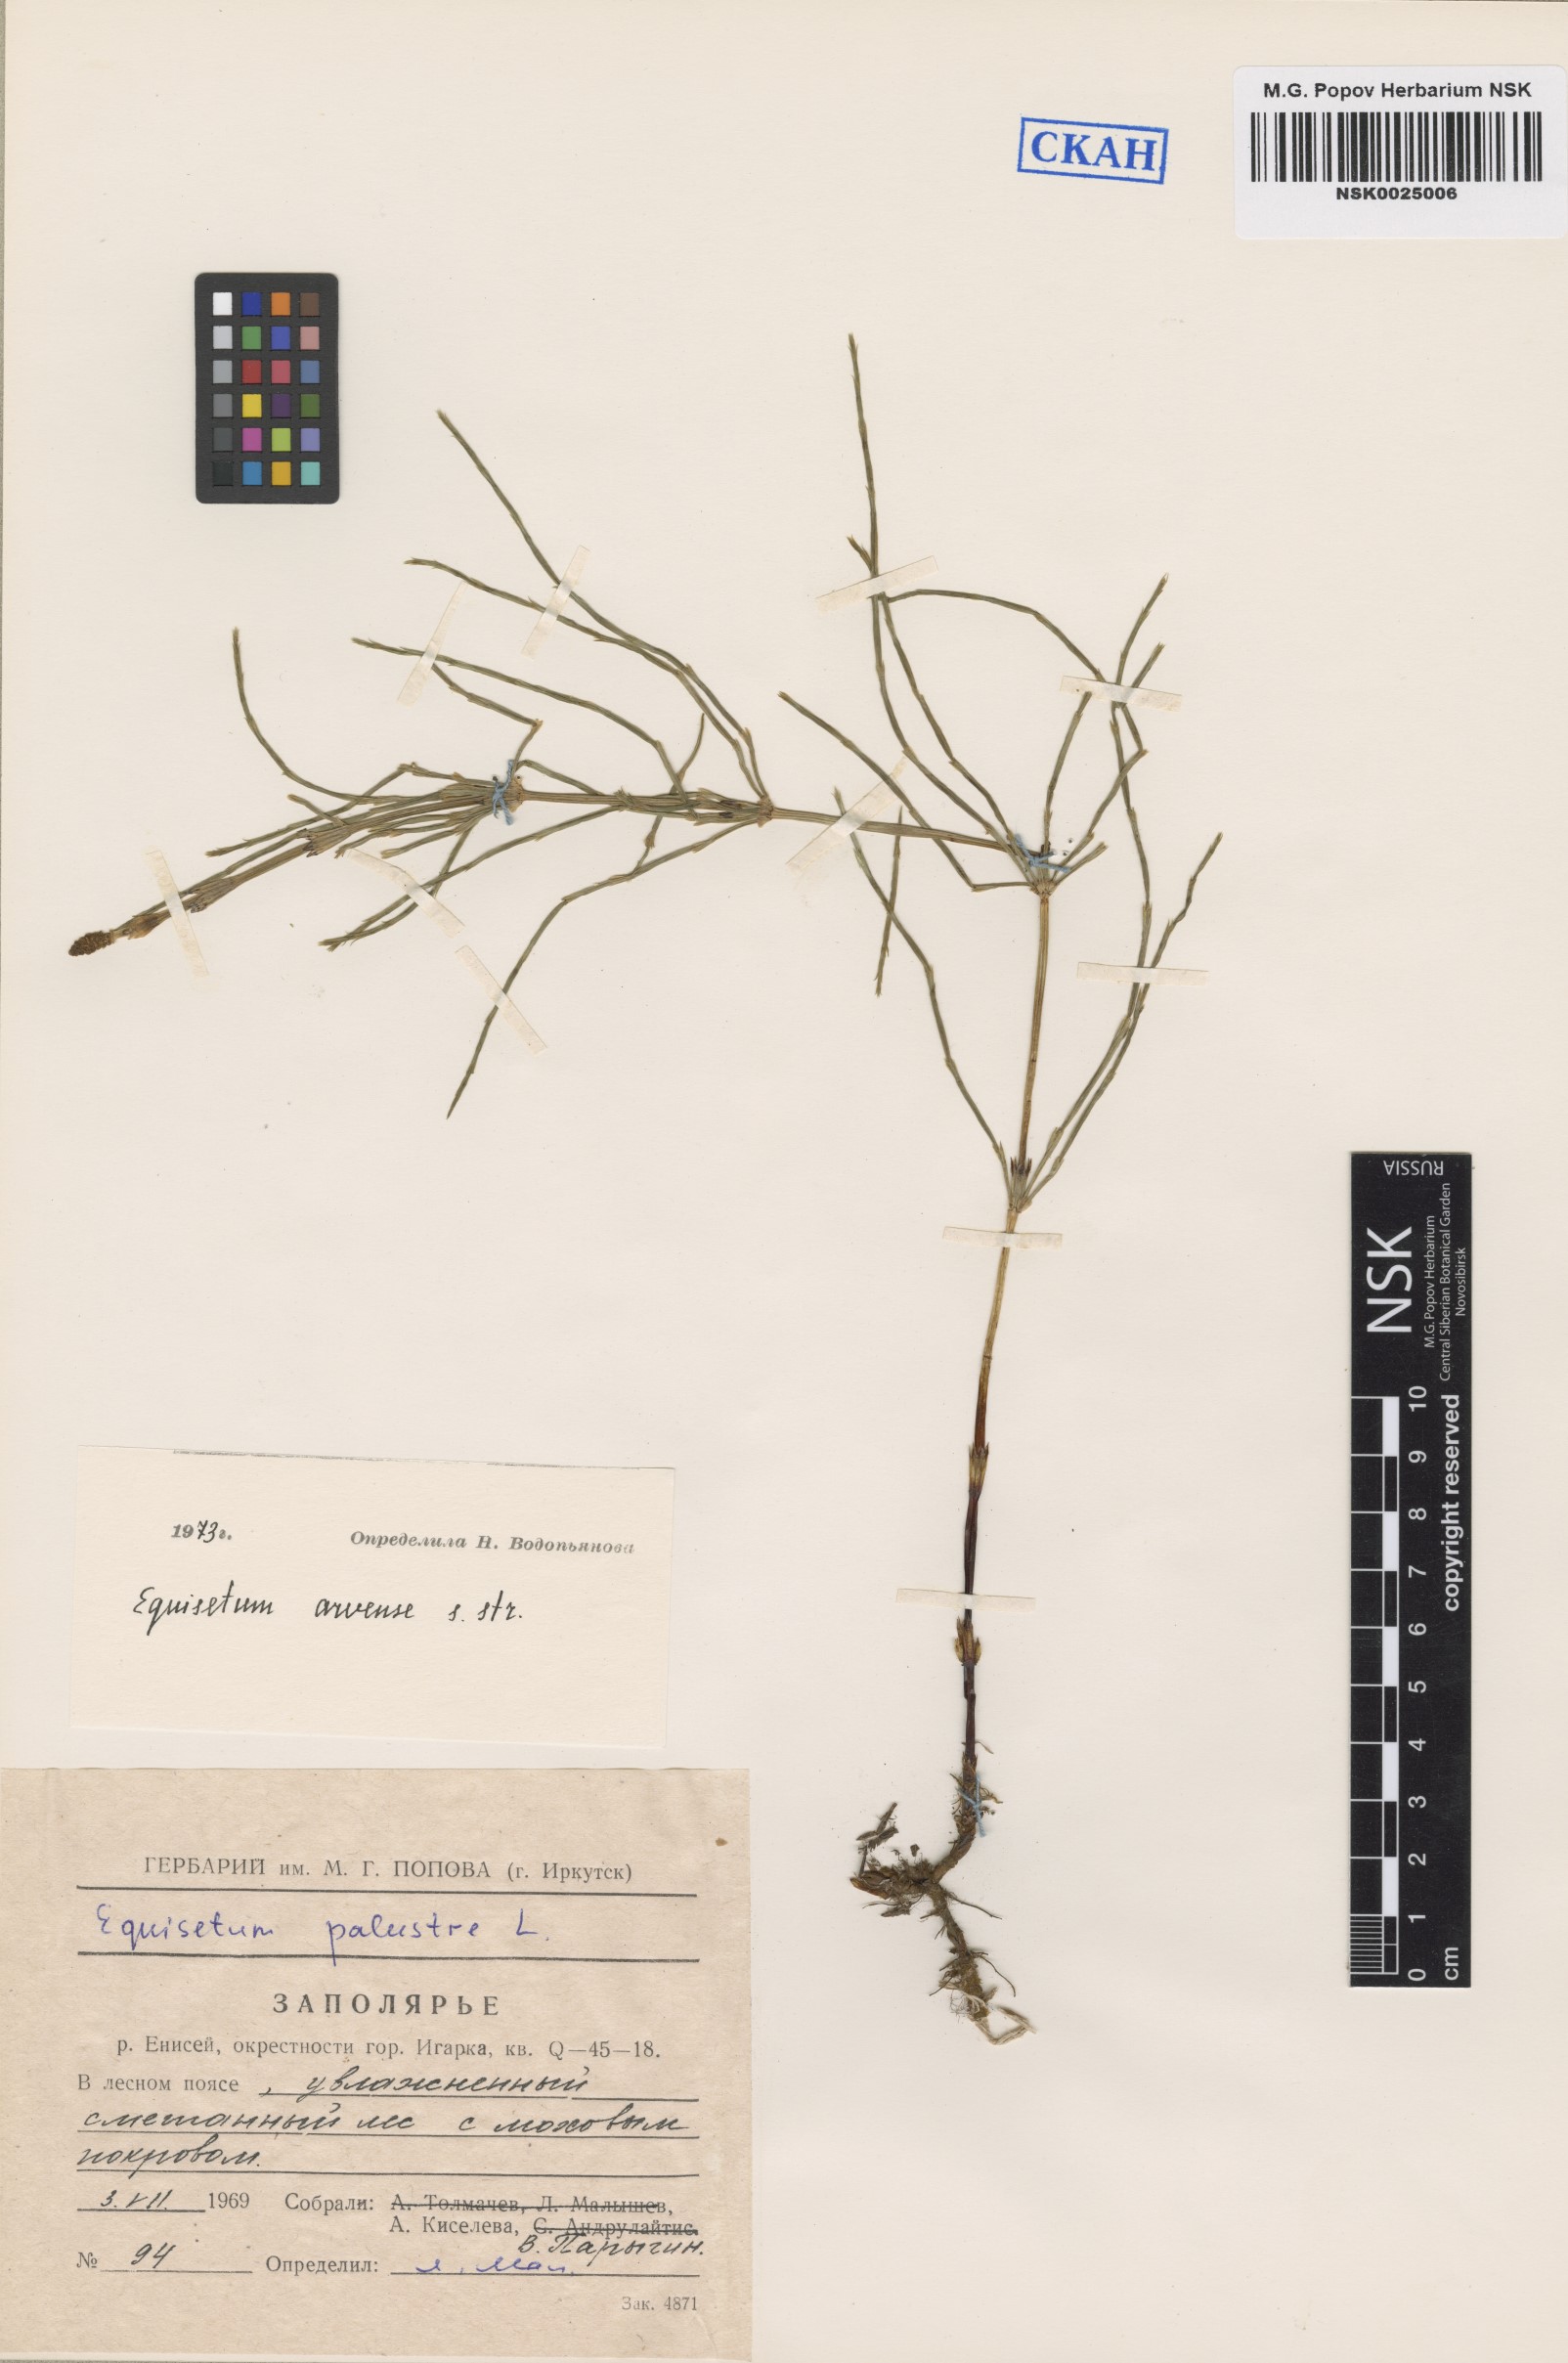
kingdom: Plantae
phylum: Tracheophyta
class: Polypodiopsida
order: Equisetales
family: Equisetaceae
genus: Equisetum
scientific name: Equisetum arvense
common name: Field horsetail
